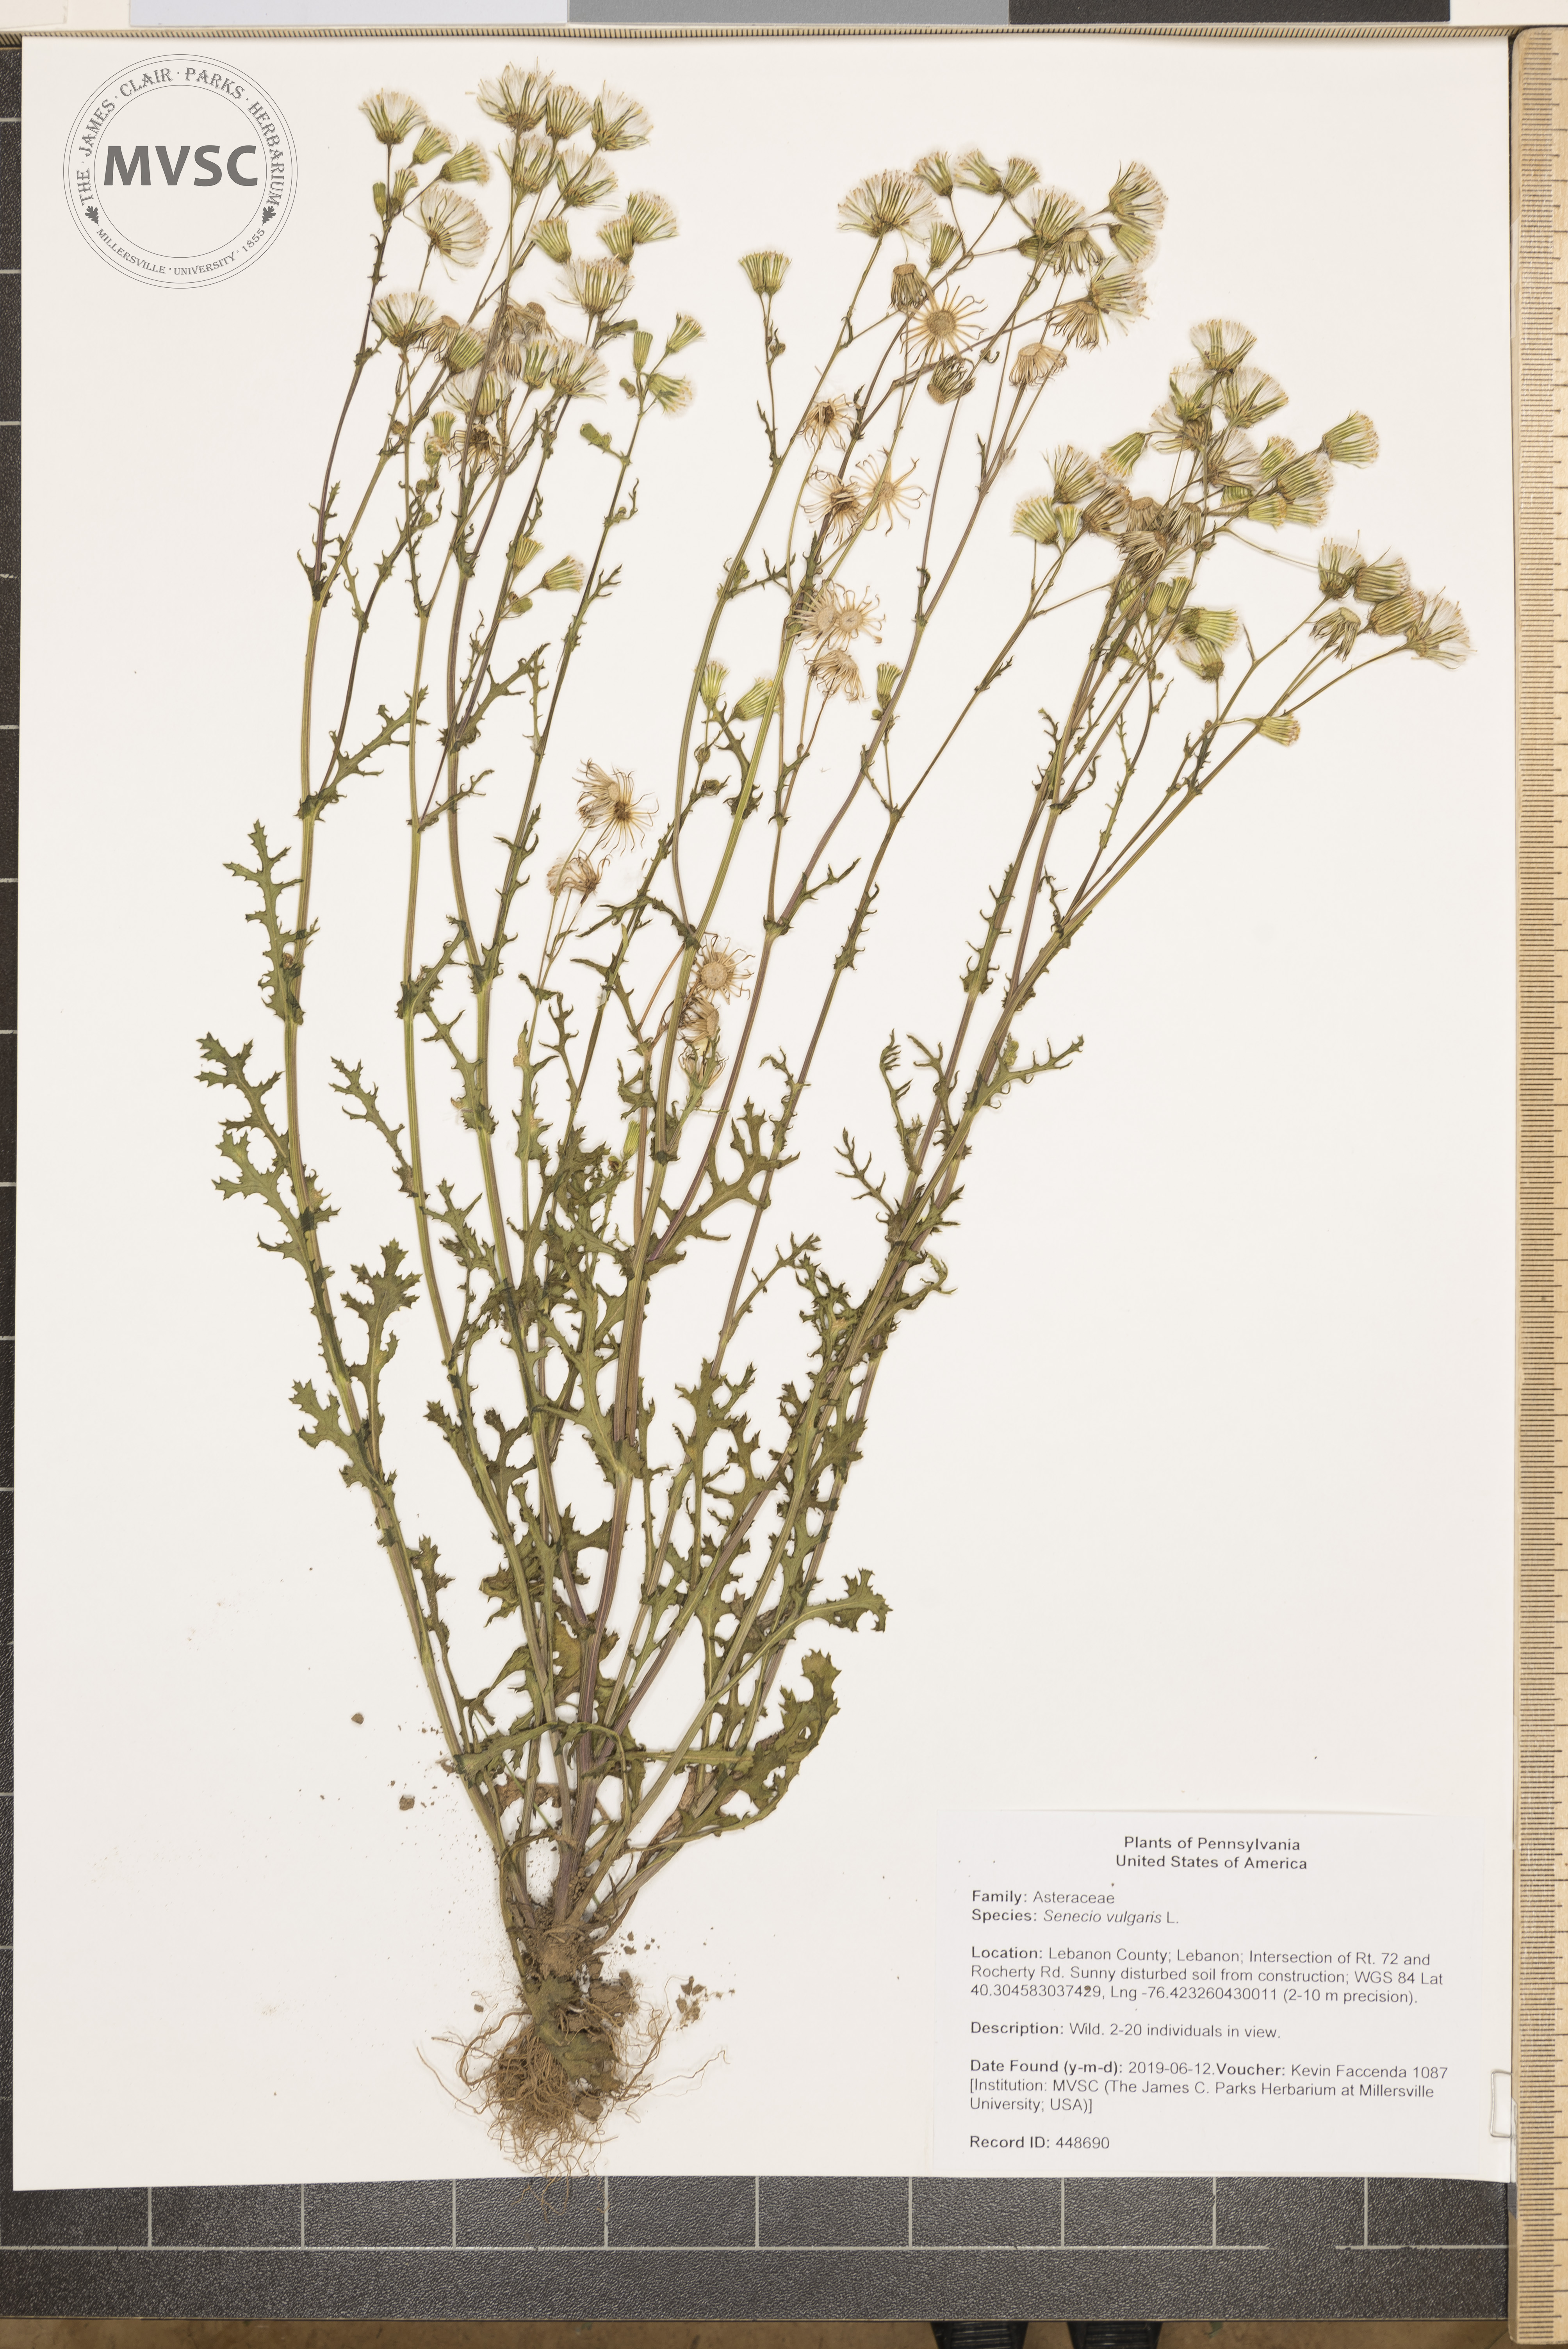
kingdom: Plantae
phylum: Tracheophyta
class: Magnoliopsida
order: Asterales
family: Asteraceae
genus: Senecio
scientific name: Senecio vulgaris
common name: Old-man-in-the-spring
